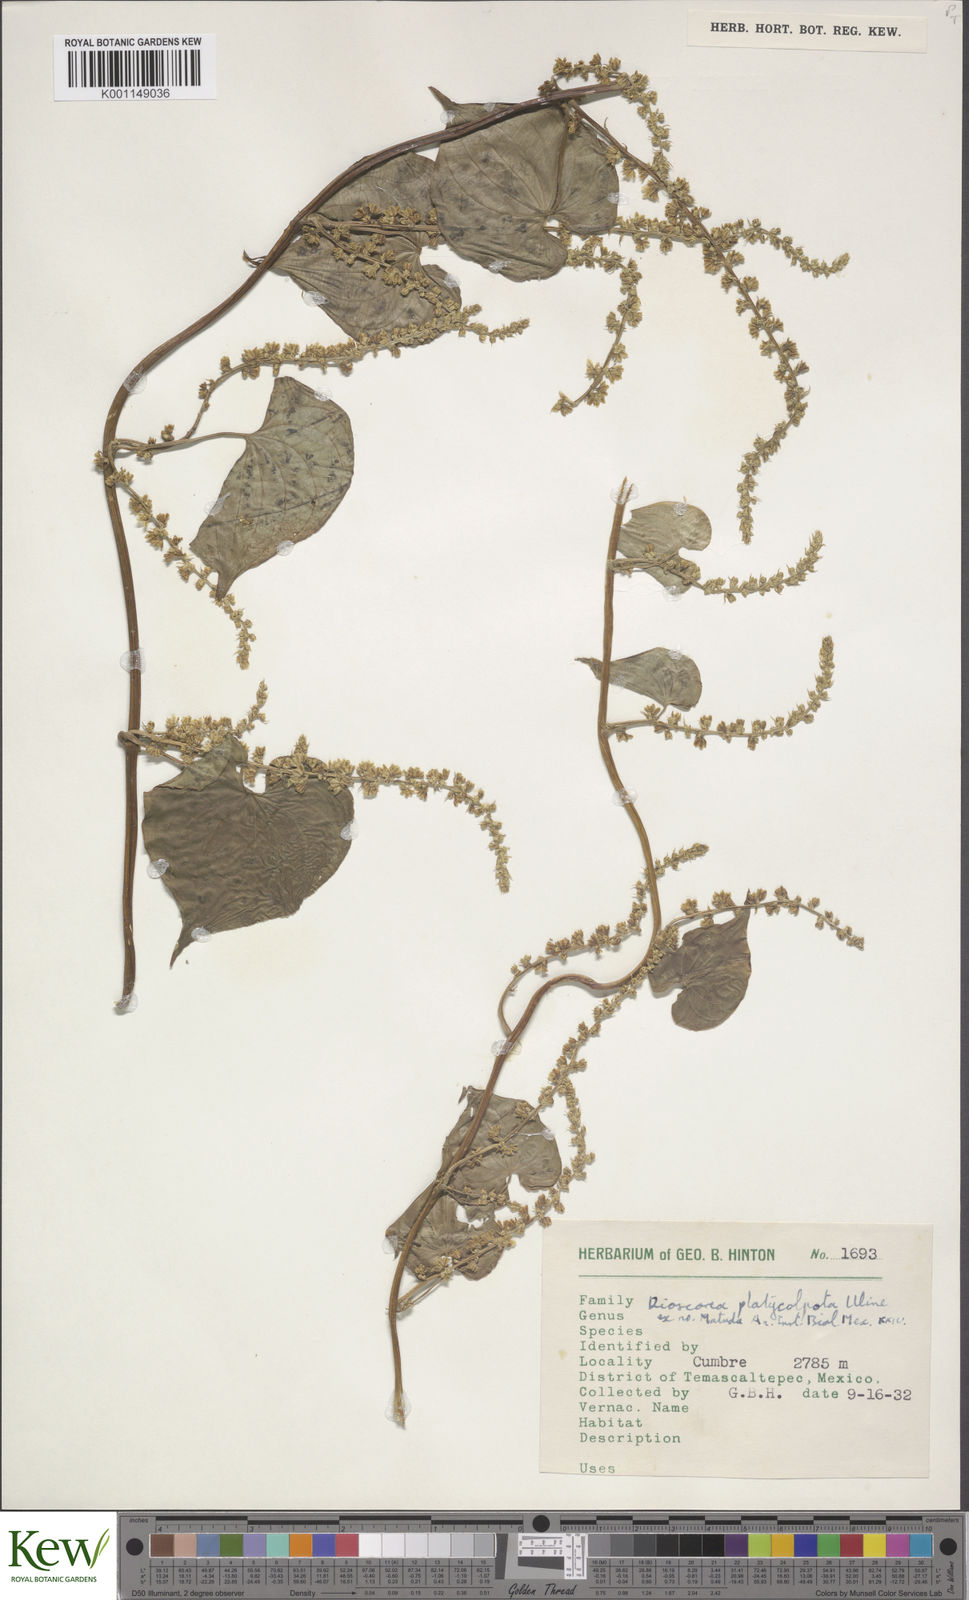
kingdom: Plantae
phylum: Tracheophyta
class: Liliopsida
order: Dioscoreales
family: Dioscoreaceae
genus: Dioscorea
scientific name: Dioscorea platycolpota
